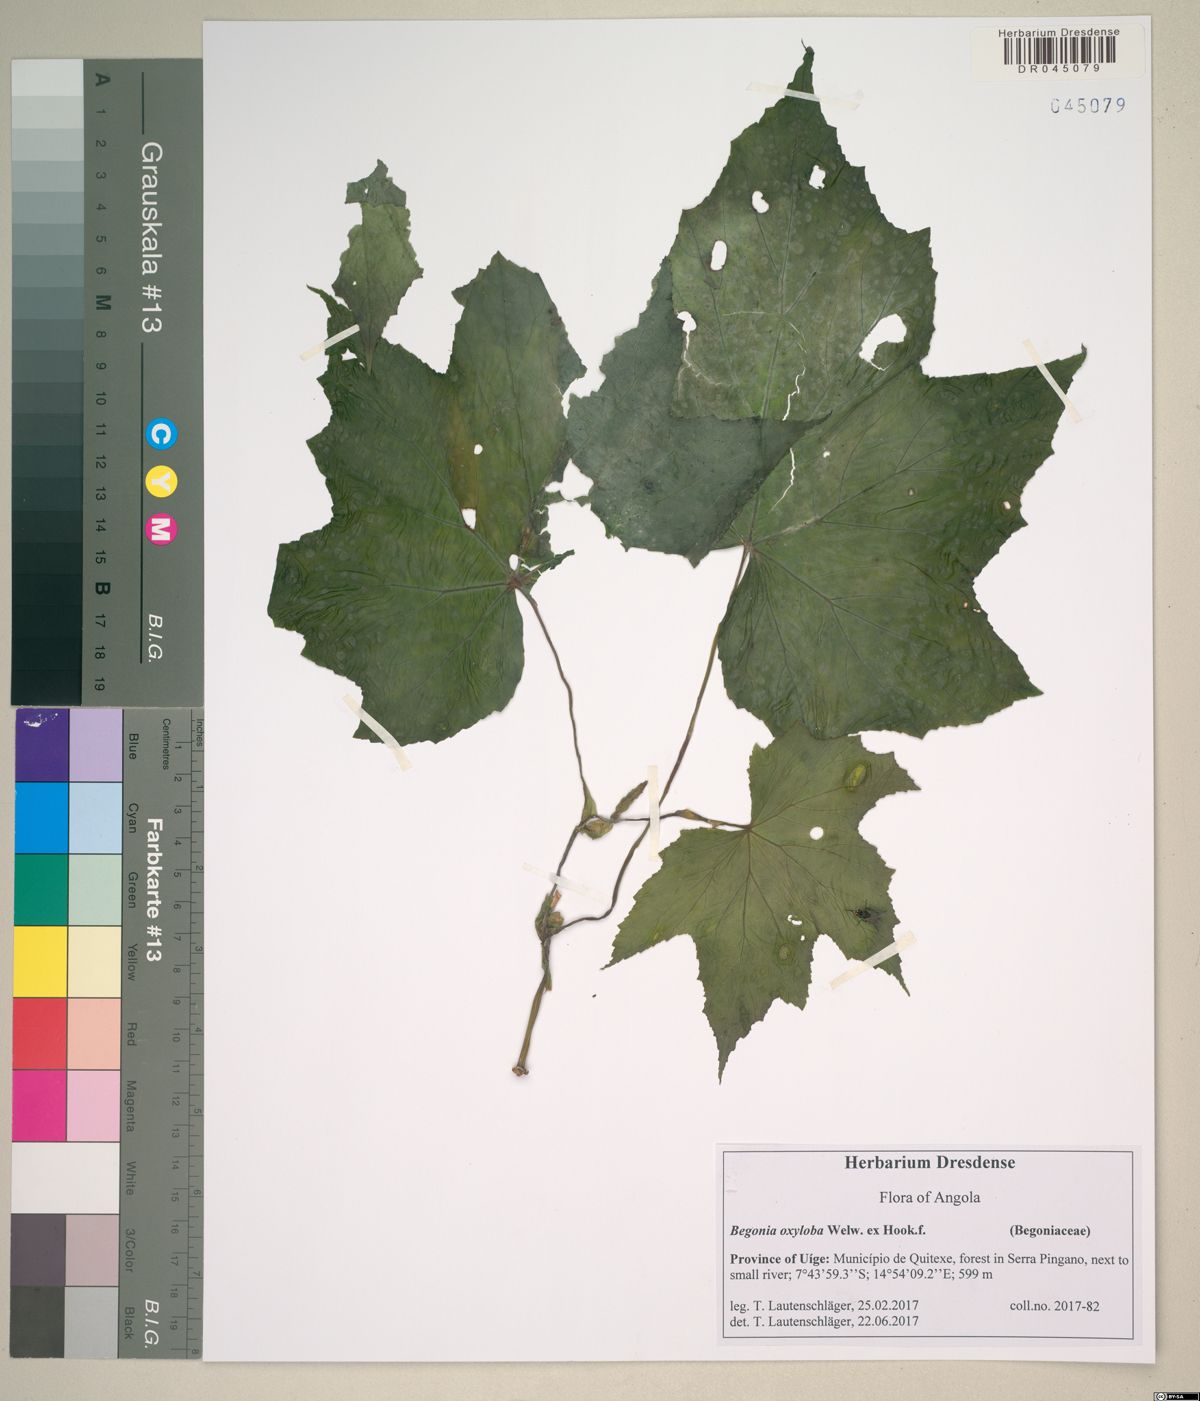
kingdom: Plantae
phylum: Tracheophyta
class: Magnoliopsida
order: Cucurbitales
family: Begoniaceae
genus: Begonia
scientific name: Begonia oxyloba
